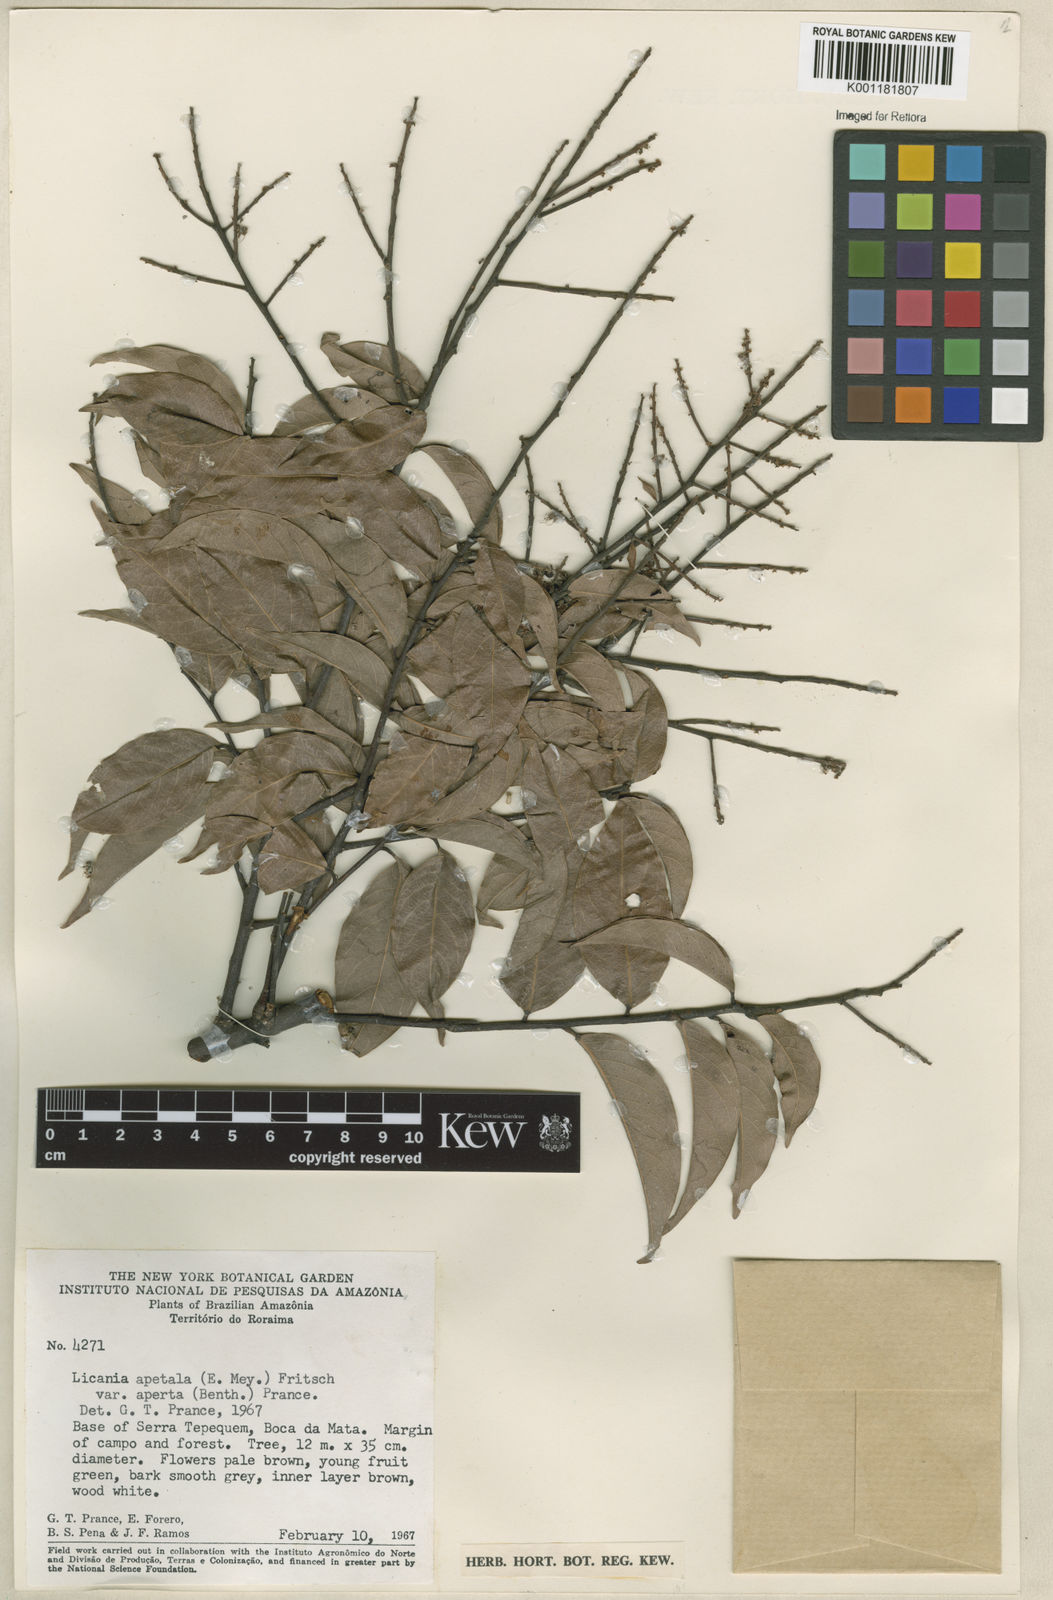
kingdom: Plantae
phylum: Tracheophyta
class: Magnoliopsida
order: Malpighiales
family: Chrysobalanaceae
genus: Leptobalanus
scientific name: Leptobalanus apetalus
